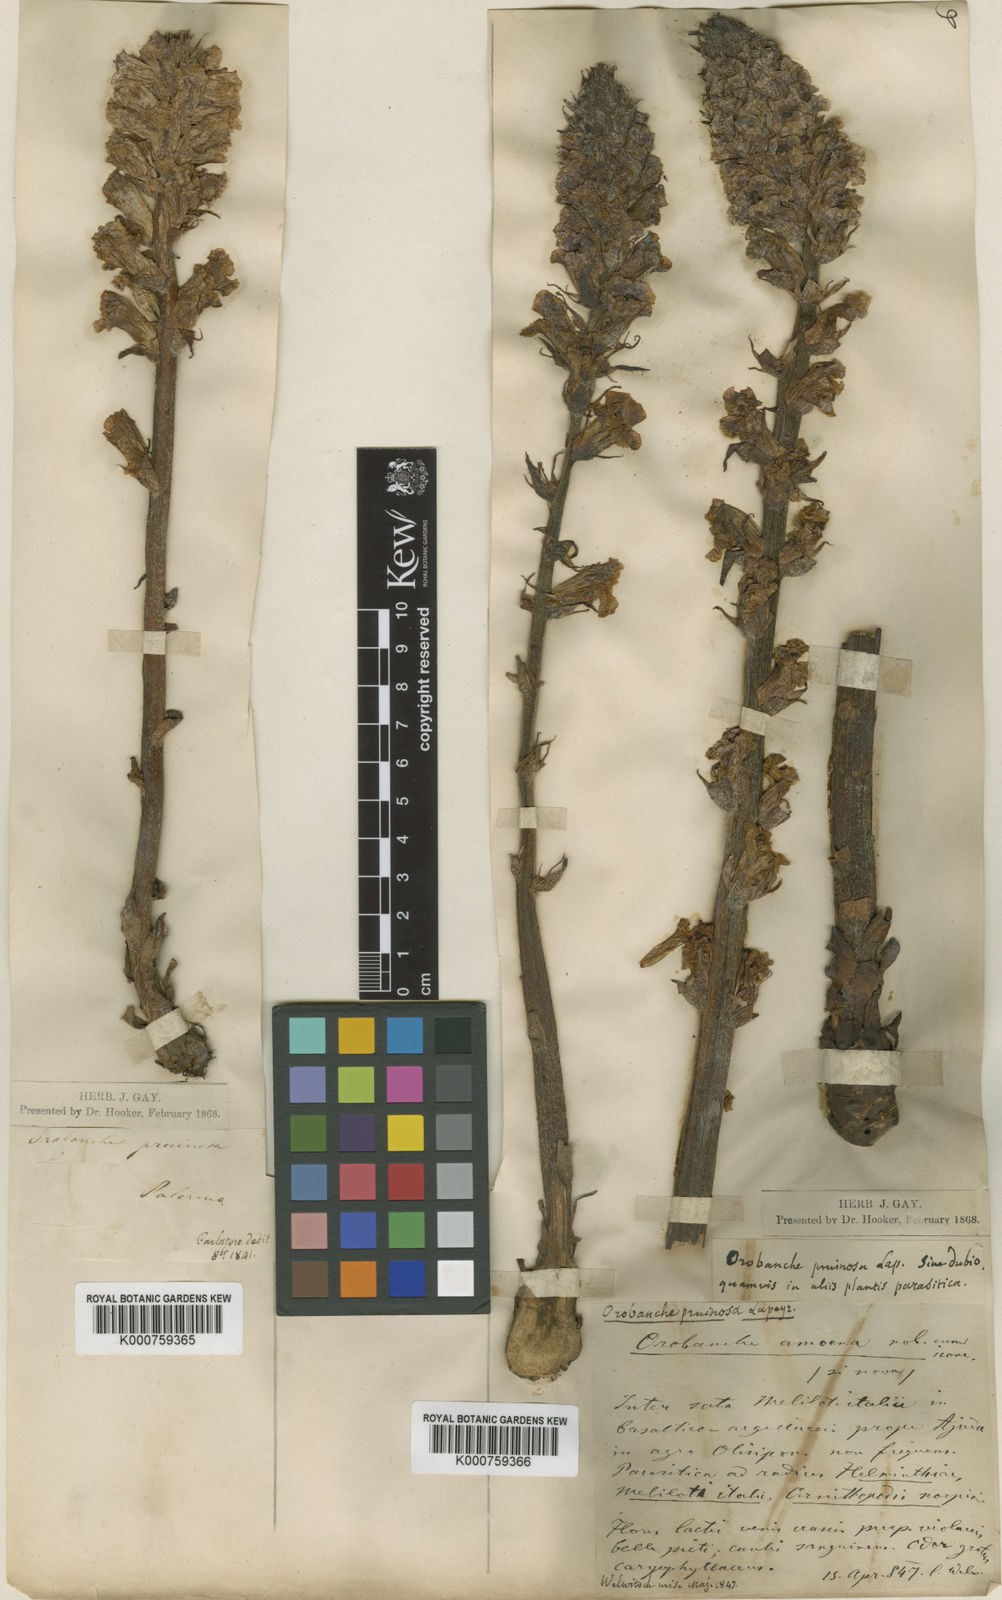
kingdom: Plantae
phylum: Tracheophyta
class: Magnoliopsida
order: Lamiales
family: Gesneriaceae
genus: Codonanthe
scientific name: Codonanthe gracilis
